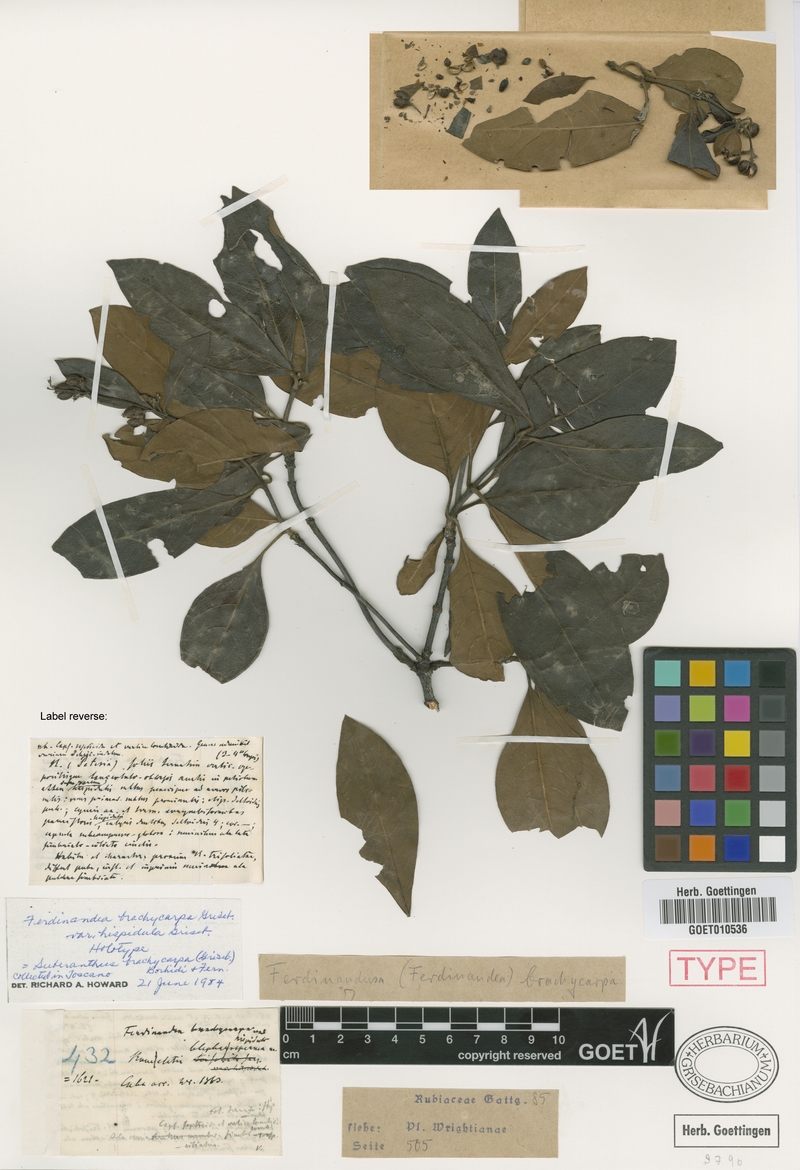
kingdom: Plantae
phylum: Tracheophyta
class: Magnoliopsida
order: Gentianales
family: Rubiaceae
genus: Suberanthus
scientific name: Suberanthus brachycarpus
